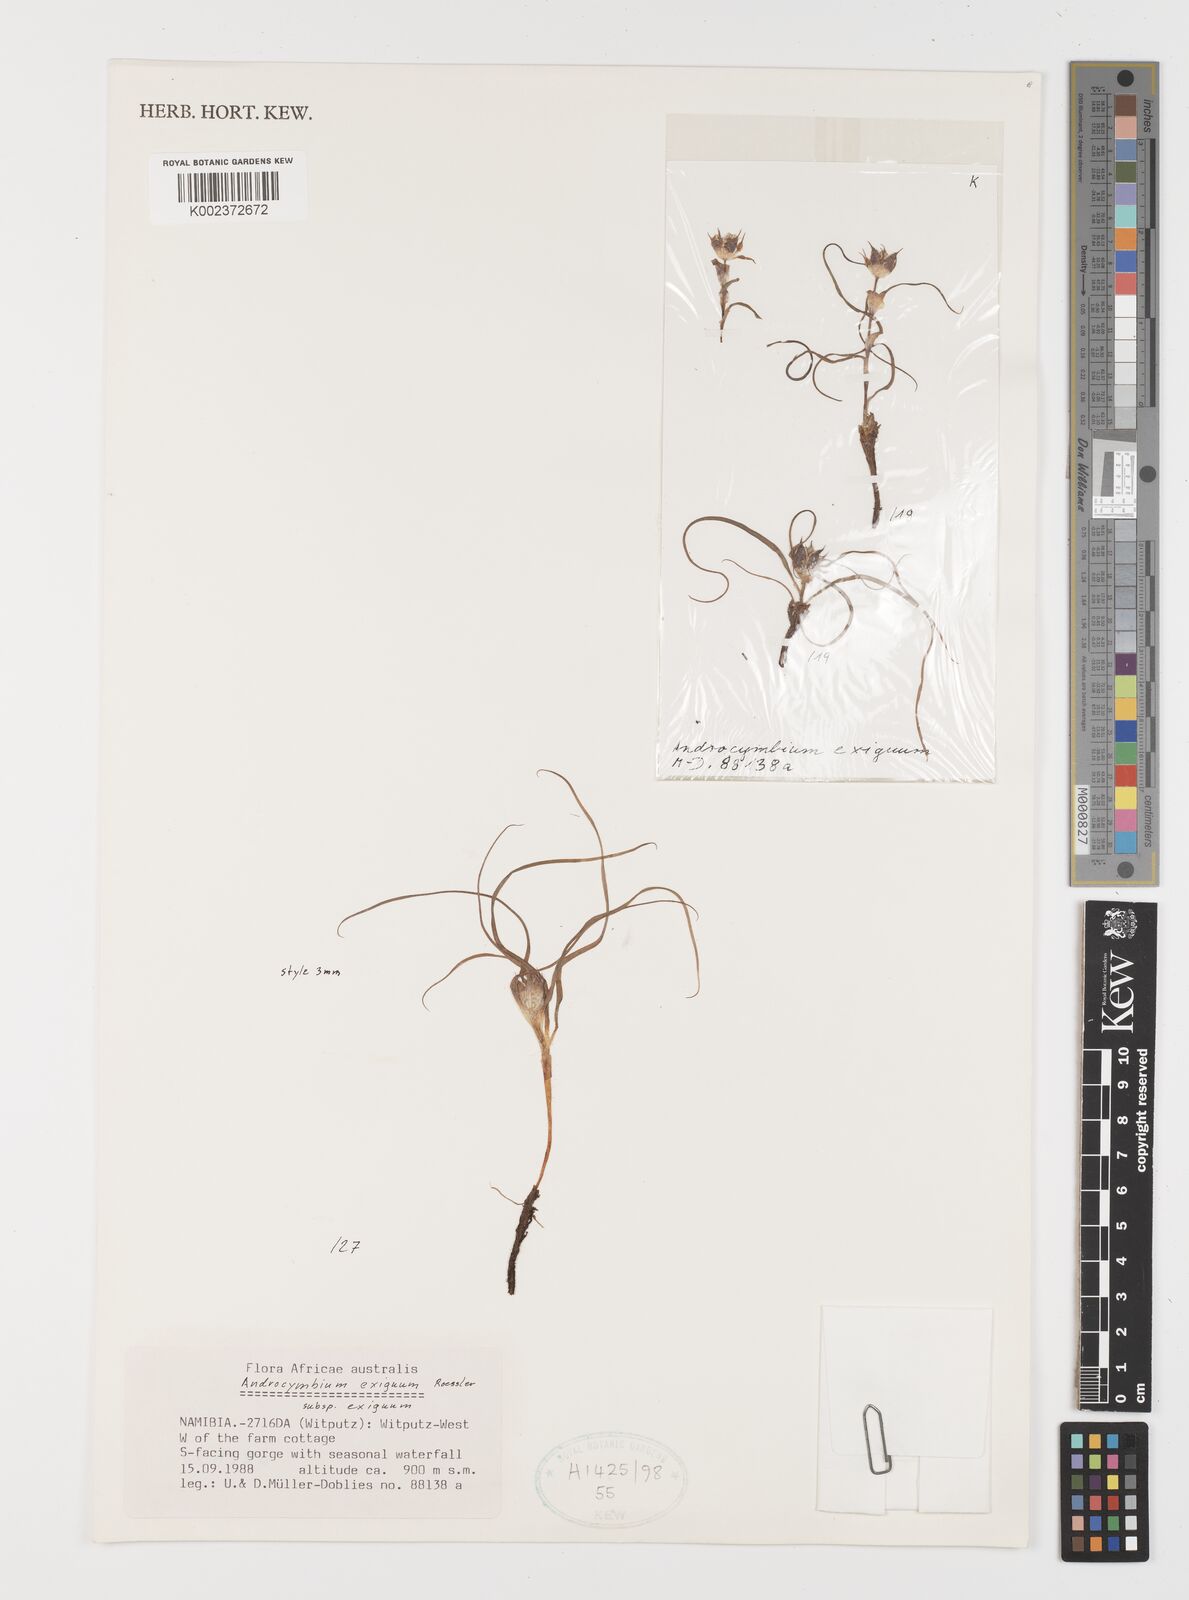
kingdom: Plantae
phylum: Tracheophyta
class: Liliopsida
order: Liliales
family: Colchicaceae
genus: Colchicum
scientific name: Colchicum exiguum
